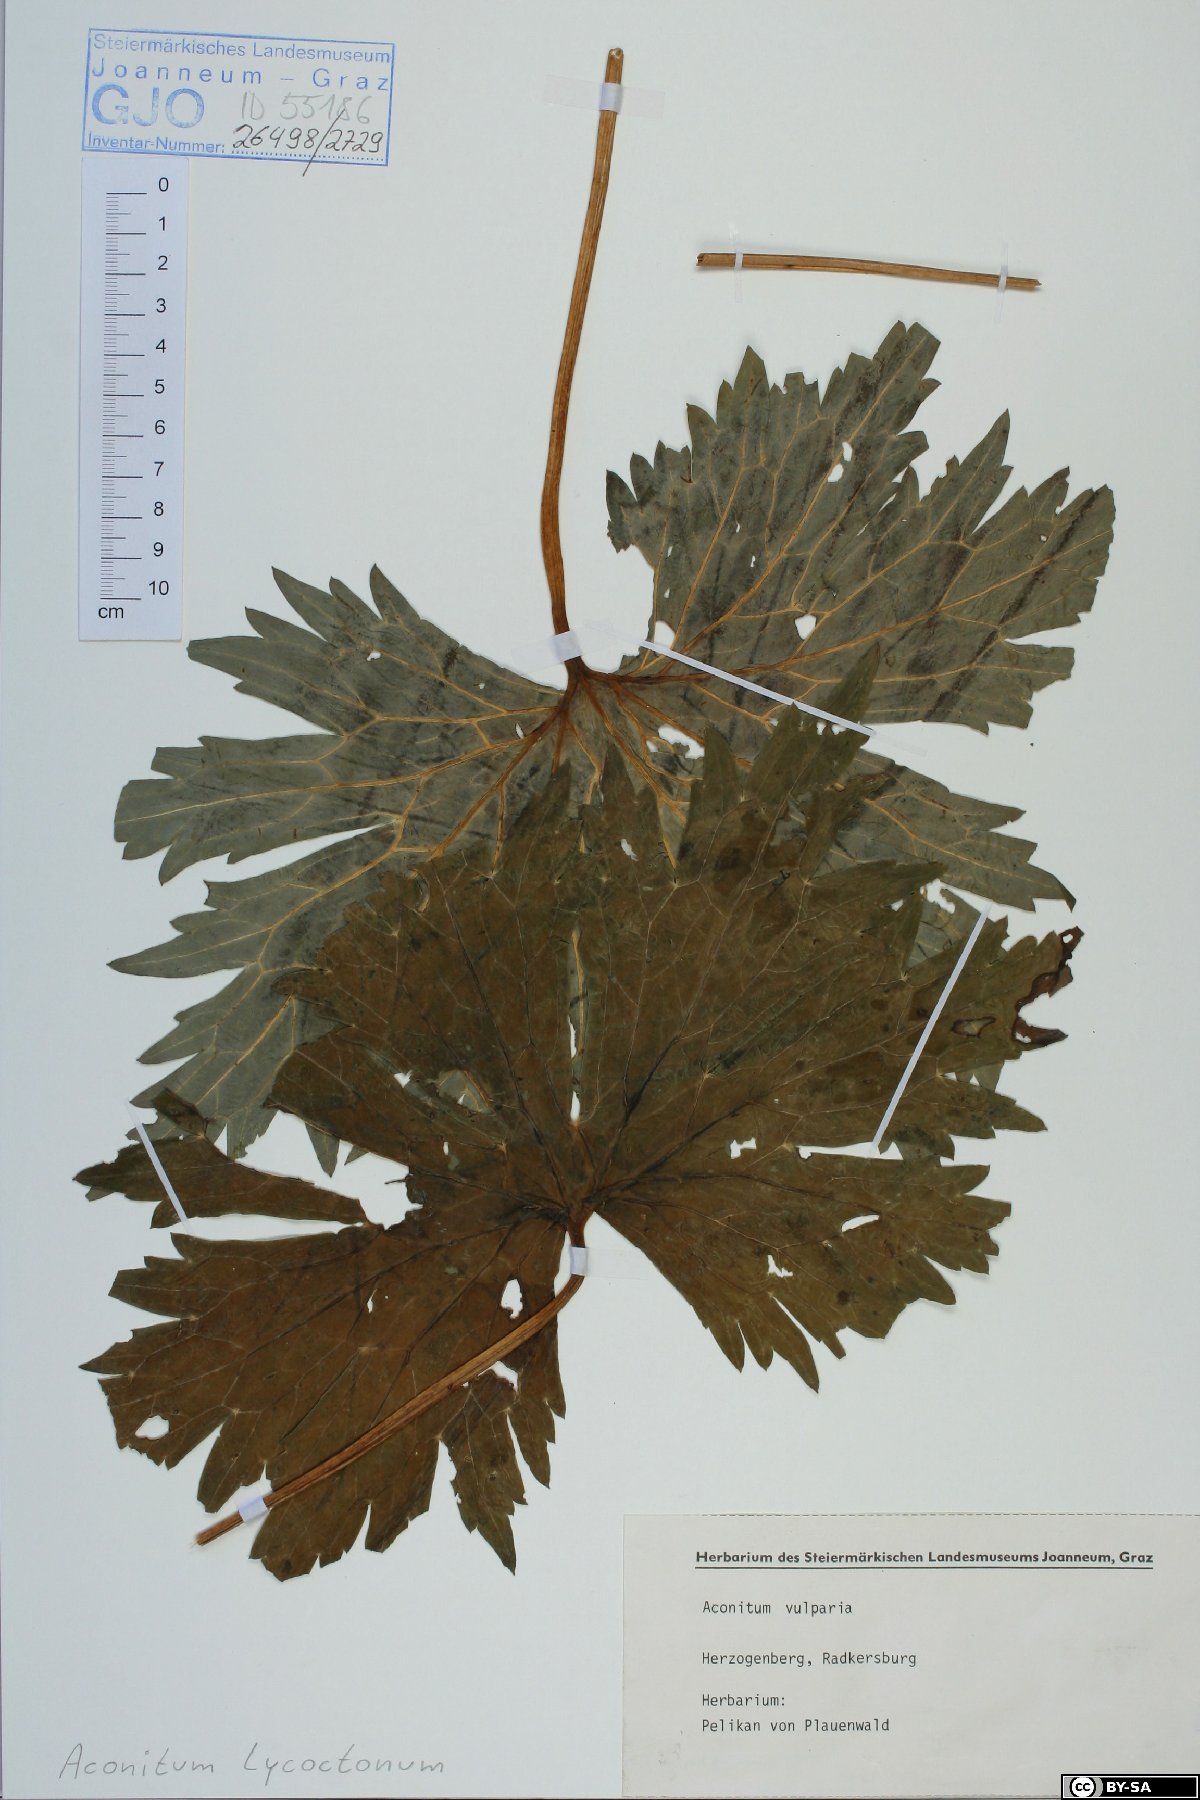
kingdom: Plantae
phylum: Tracheophyta
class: Magnoliopsida
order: Ranunculales
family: Ranunculaceae
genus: Aconitum
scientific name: Aconitum lycoctonum
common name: Wolf's-bane
